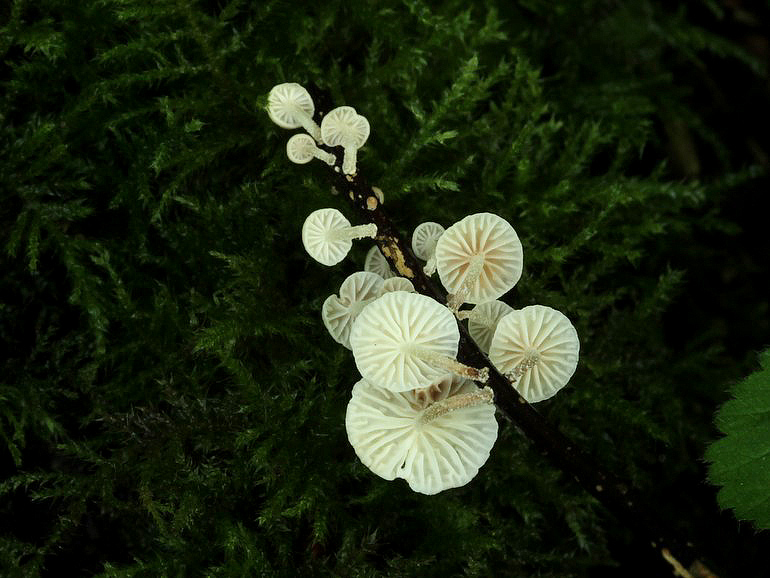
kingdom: Fungi
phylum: Basidiomycota
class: Agaricomycetes
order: Agaricales
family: Omphalotaceae
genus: Collybiopsis
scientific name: Collybiopsis ramealis
